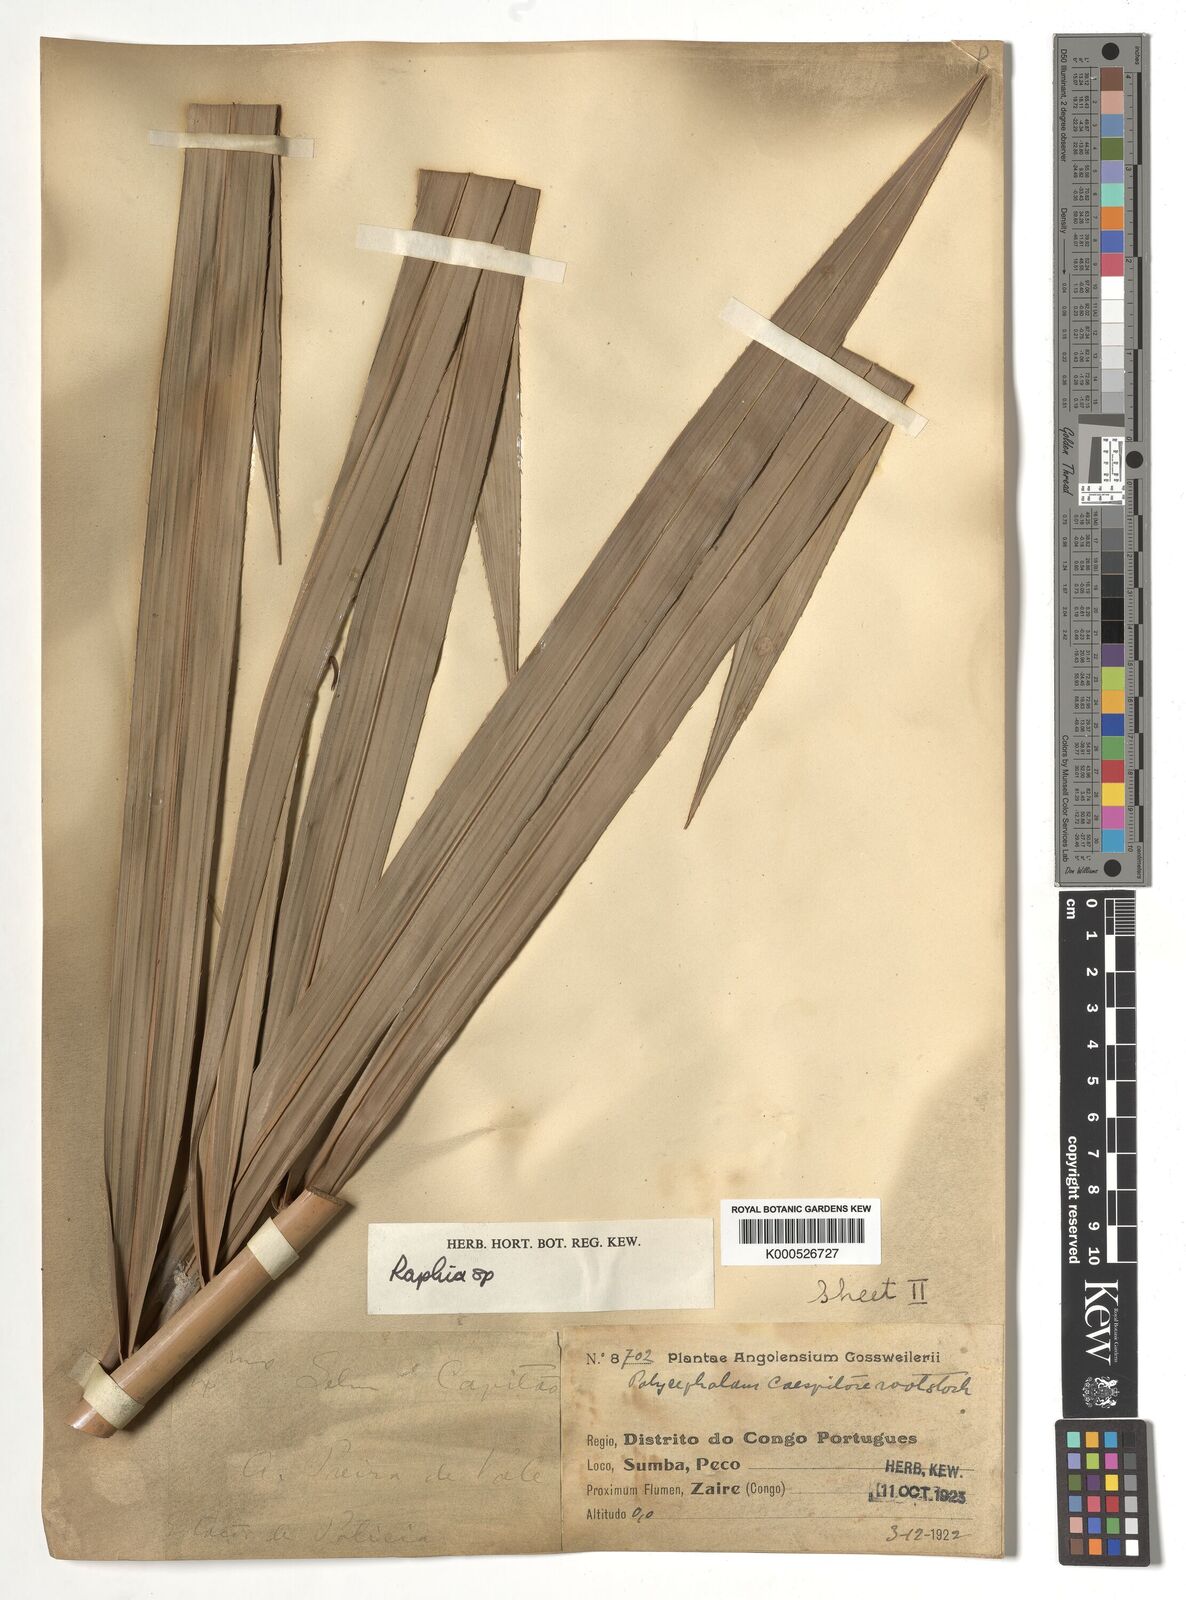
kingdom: Plantae
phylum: Tracheophyta
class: Liliopsida
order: Arecales
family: Arecaceae
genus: Raphia
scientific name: Raphia
